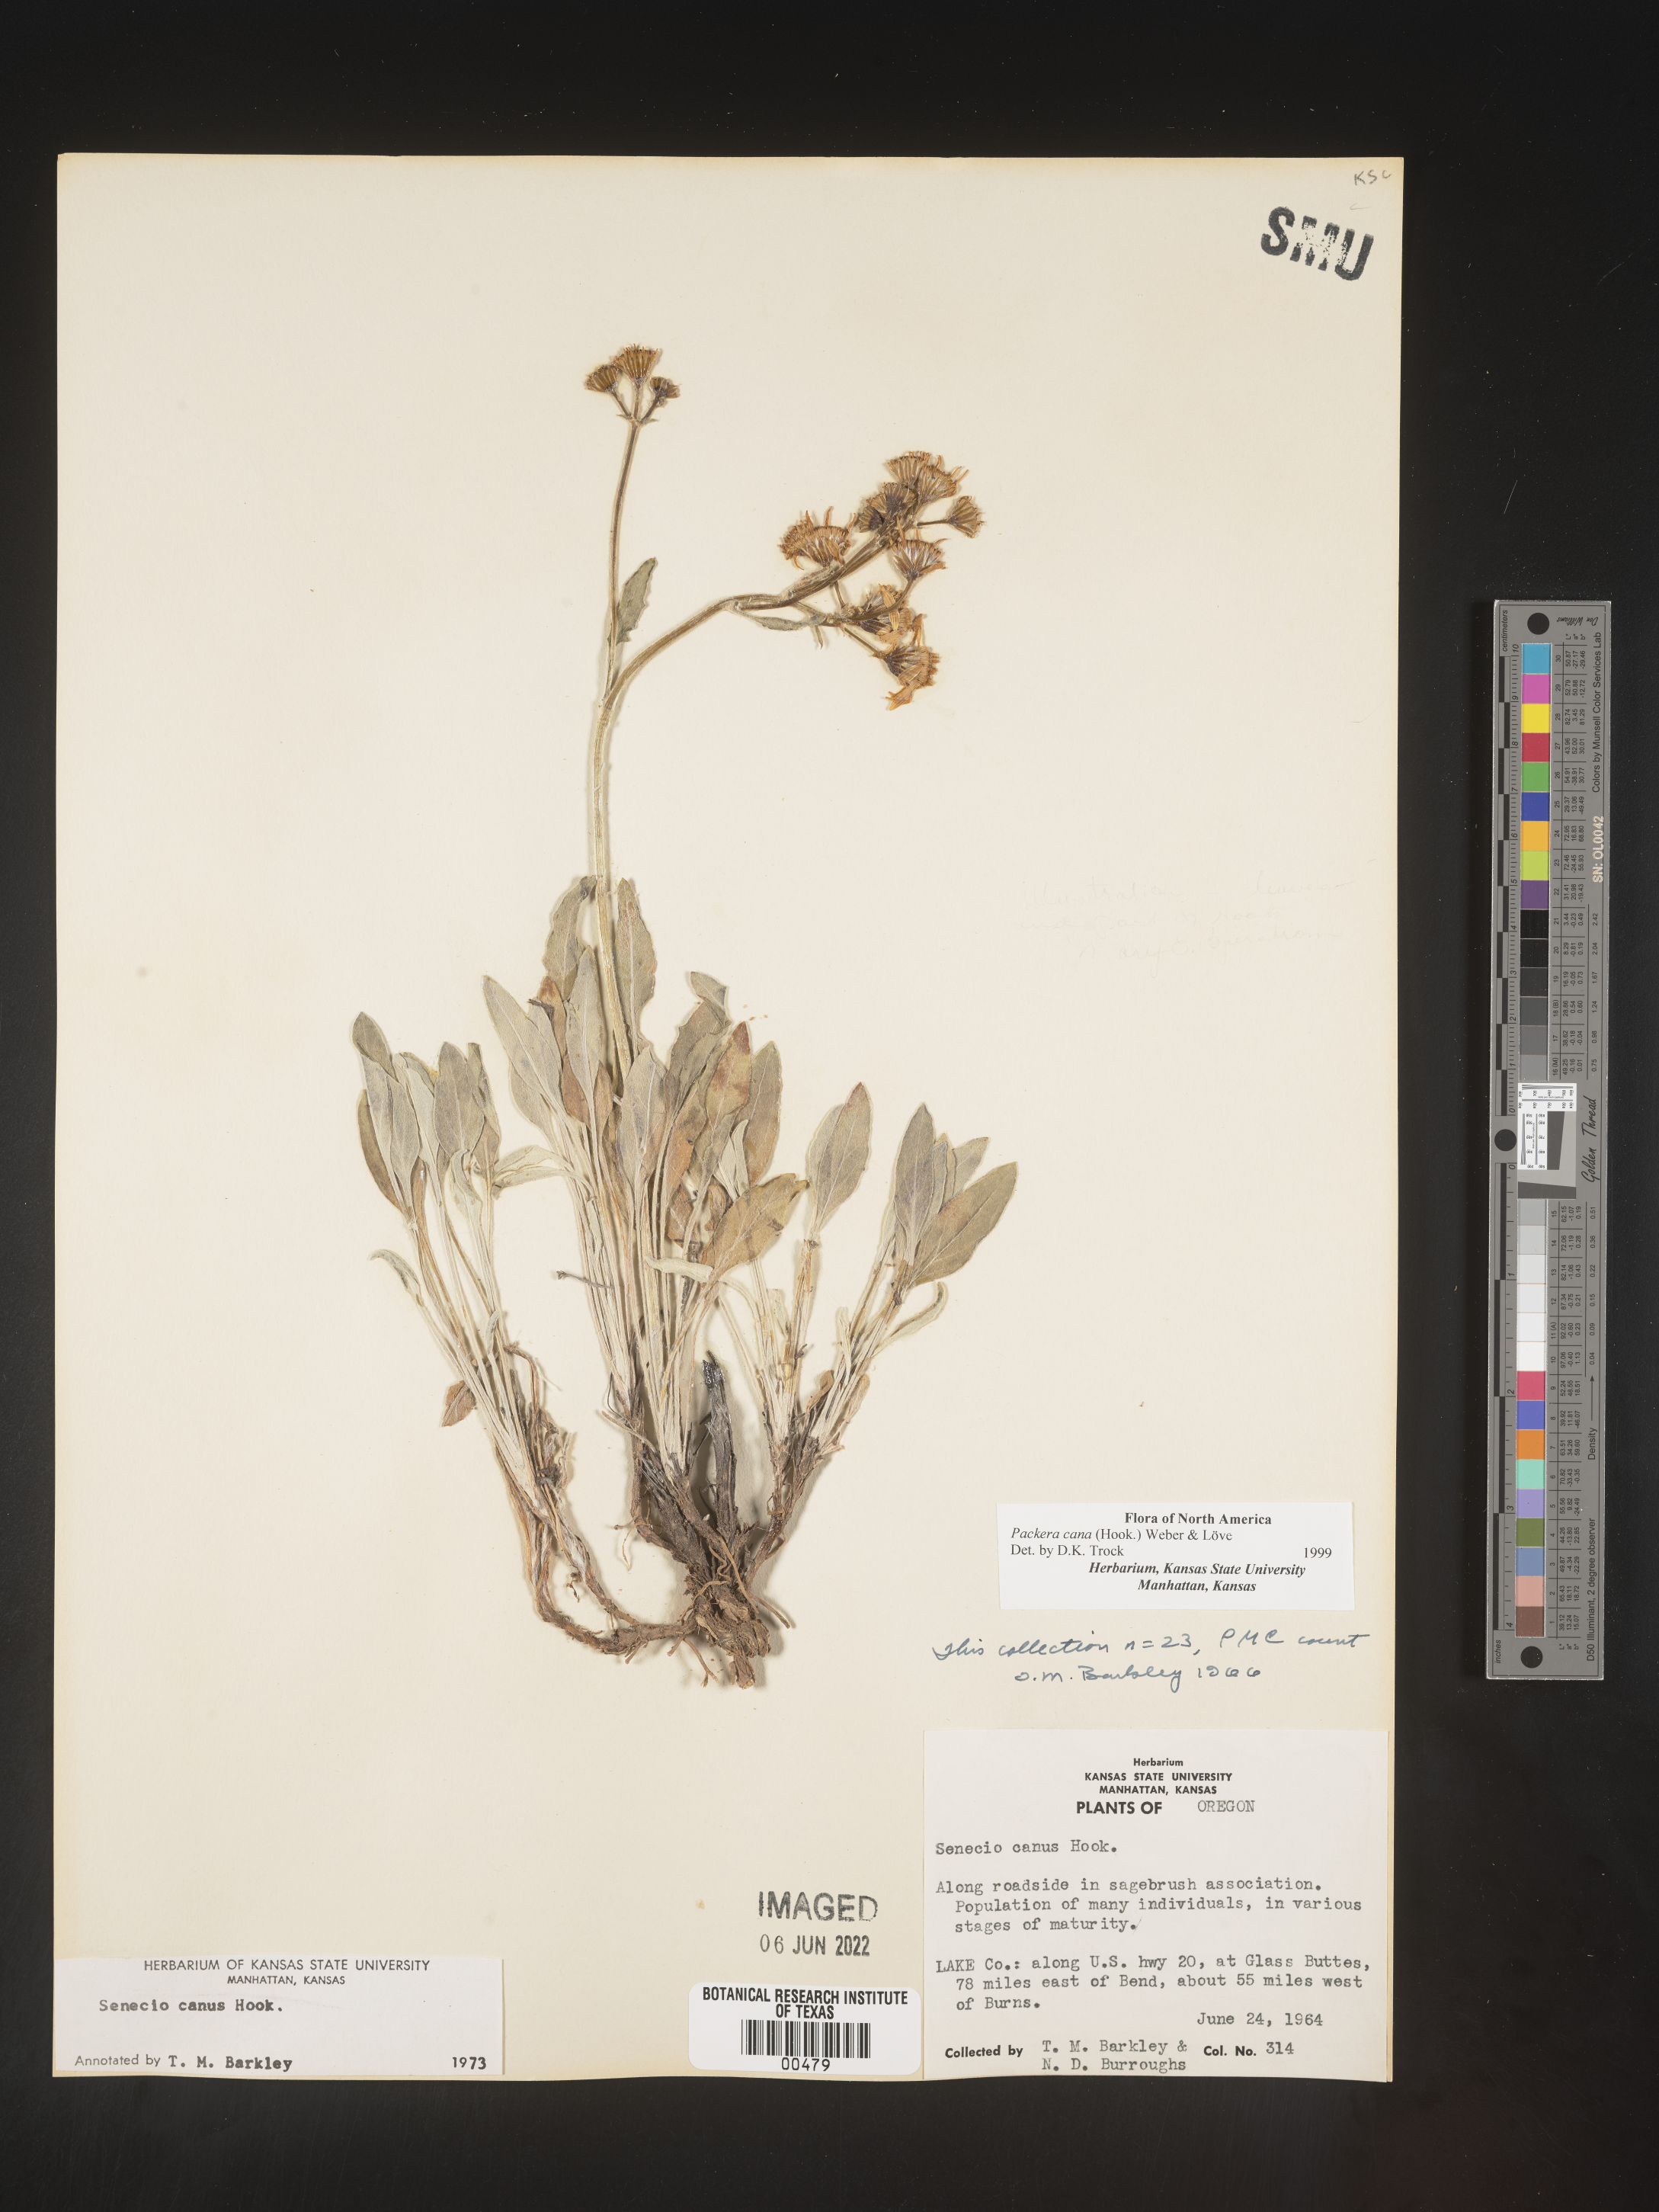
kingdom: Plantae
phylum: Tracheophyta
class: Magnoliopsida
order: Asterales
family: Asteraceae
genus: Packera
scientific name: Packera cana
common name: Woolly groundsel
